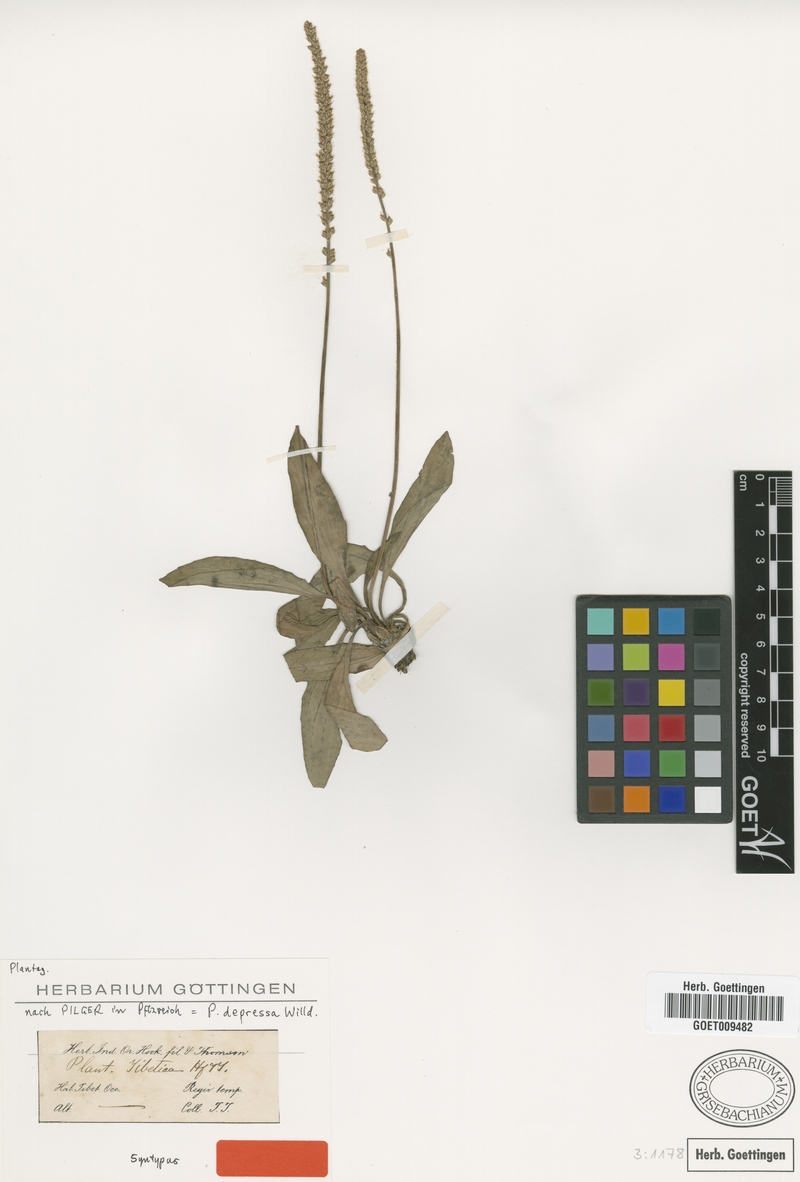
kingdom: Plantae
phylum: Tracheophyta
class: Magnoliopsida
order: Lamiales
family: Plantaginaceae
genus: Plantago
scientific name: Plantago depressa
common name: Depressed plantain
